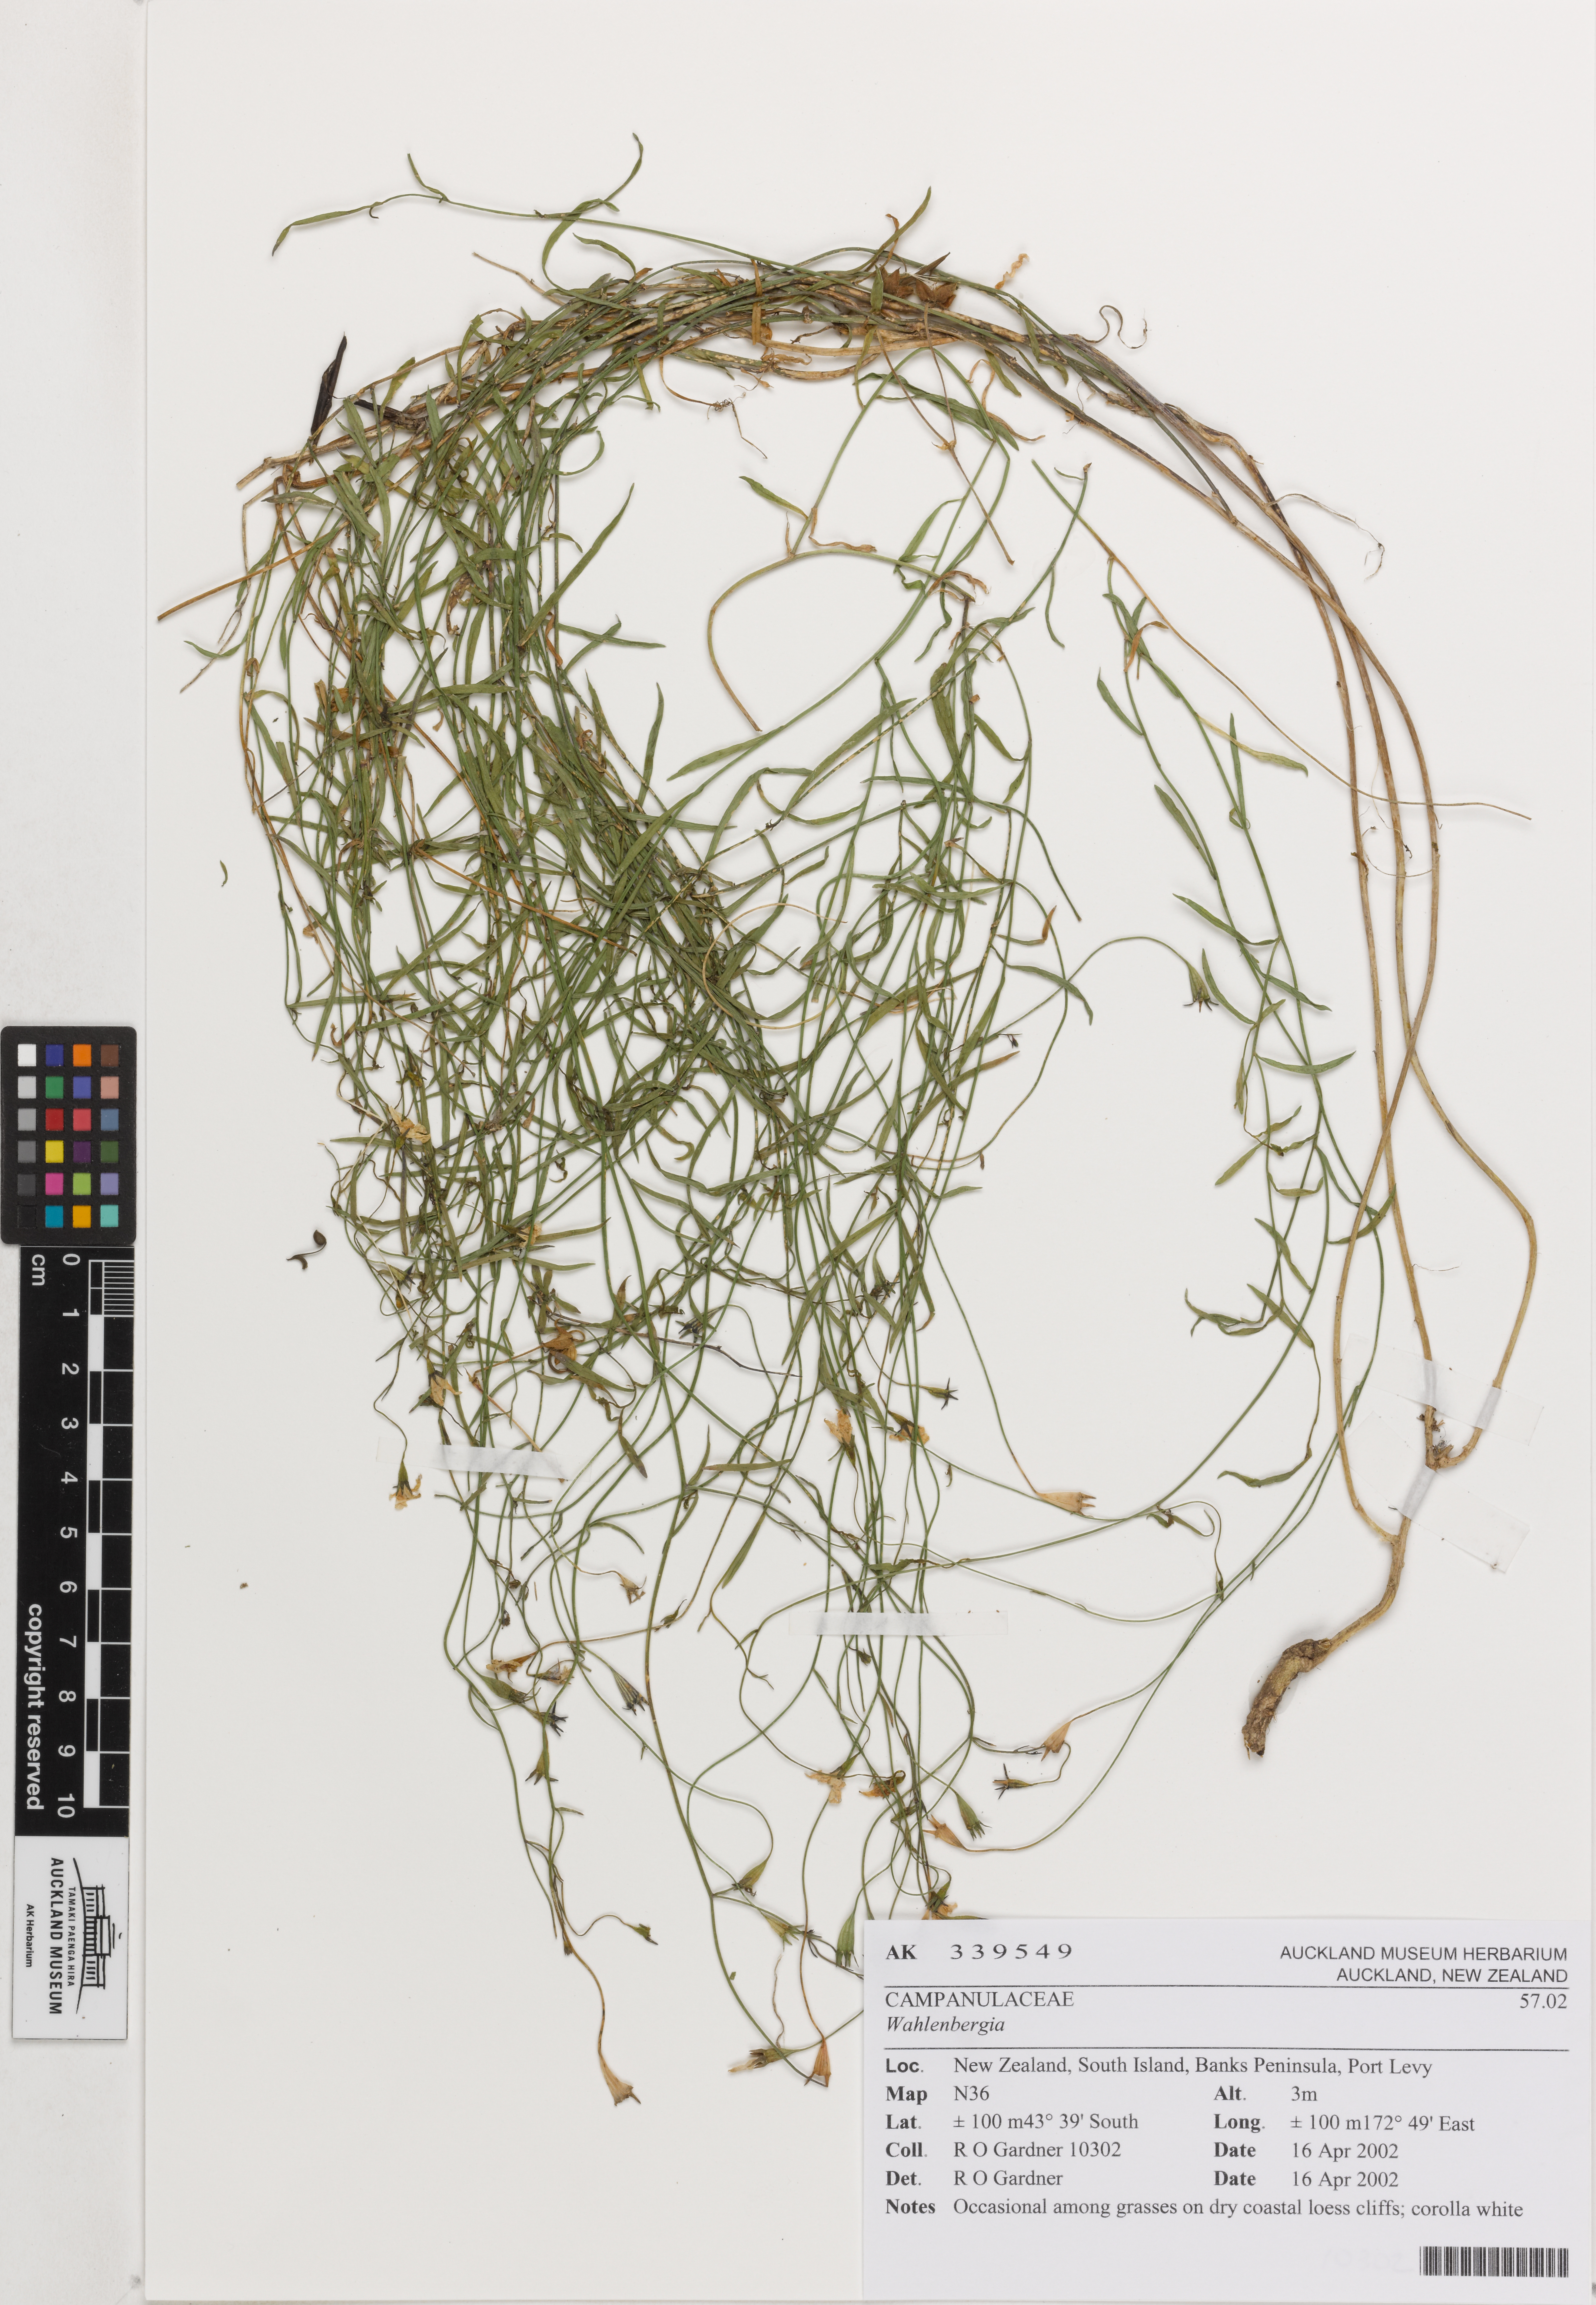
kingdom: Plantae
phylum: Tracheophyta
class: Magnoliopsida
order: Asterales
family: Campanulaceae
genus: Wahlenbergia
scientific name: Wahlenbergia
